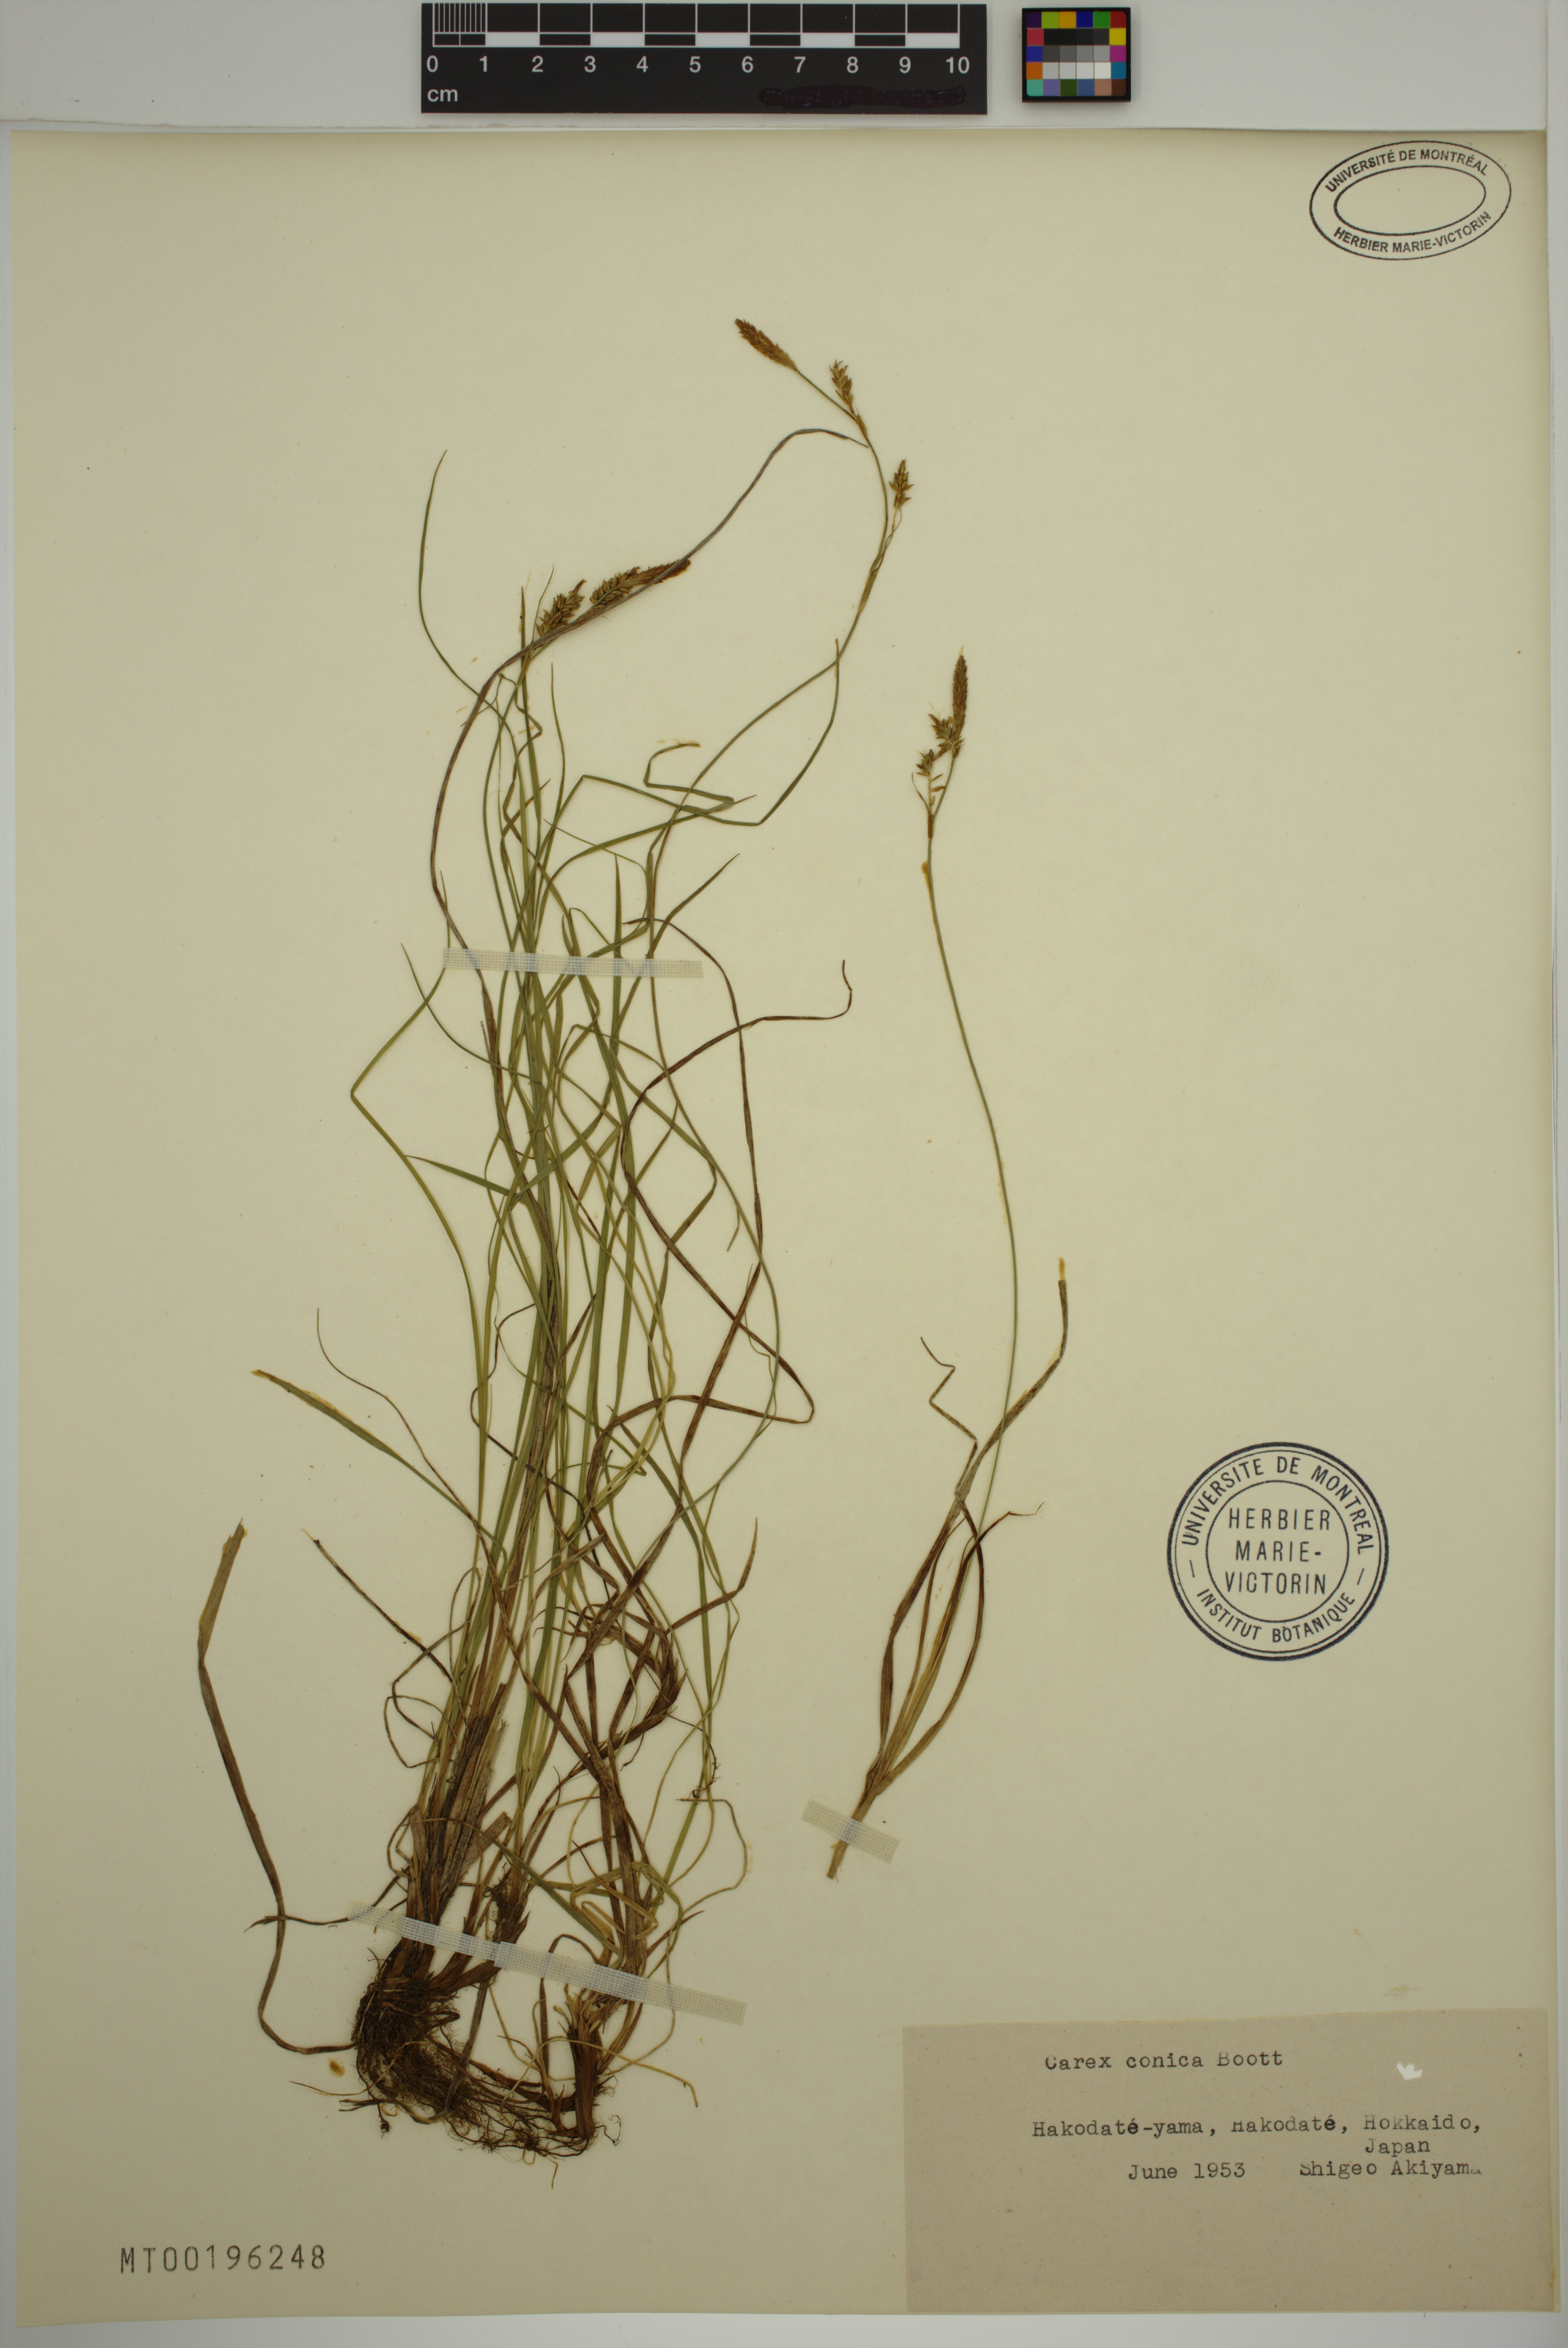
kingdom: Plantae
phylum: Tracheophyta
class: Liliopsida
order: Poales
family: Cyperaceae
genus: Carex
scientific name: Carex conica
